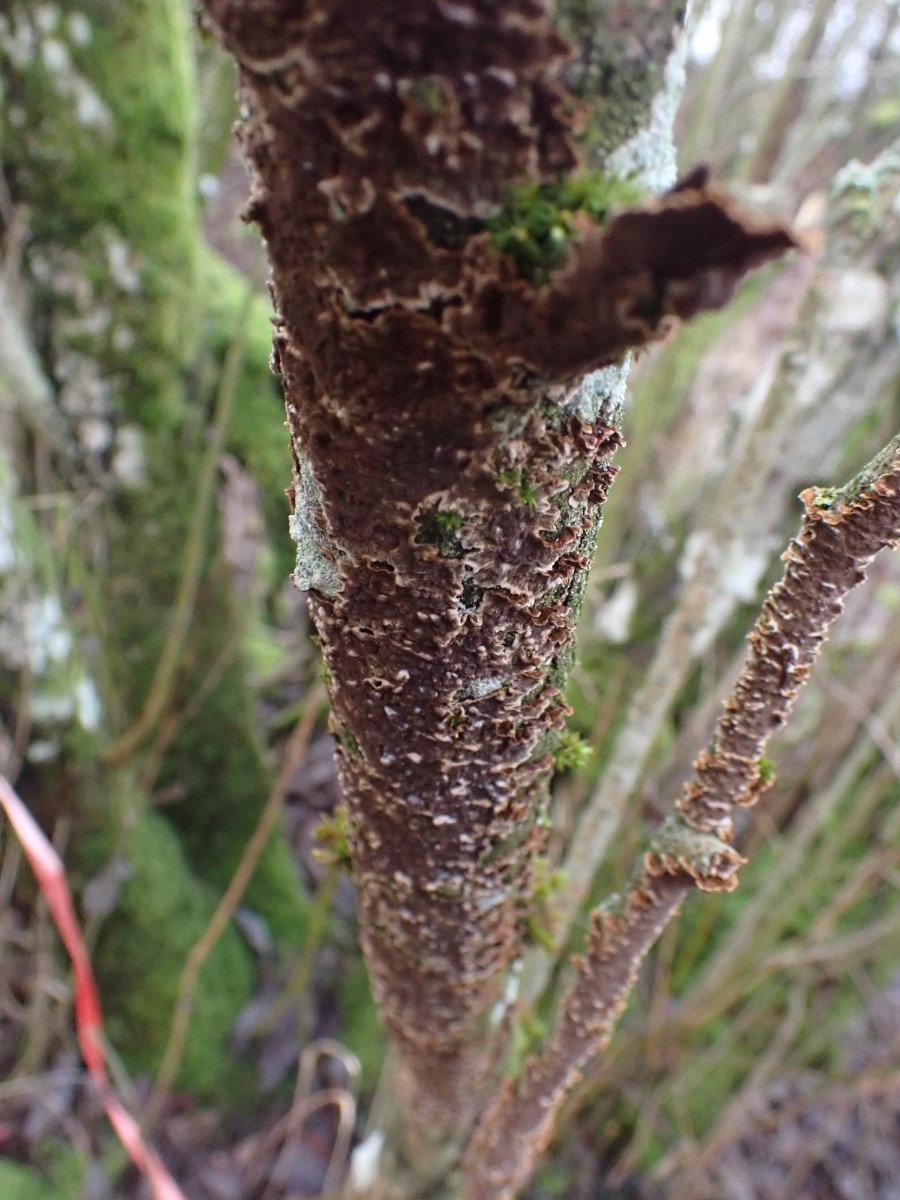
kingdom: Fungi
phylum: Basidiomycota
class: Agaricomycetes
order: Hymenochaetales
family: Hymenochaetaceae
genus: Hydnoporia
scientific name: Hydnoporia tabacina
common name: tobaksbrun ruslædersvamp
